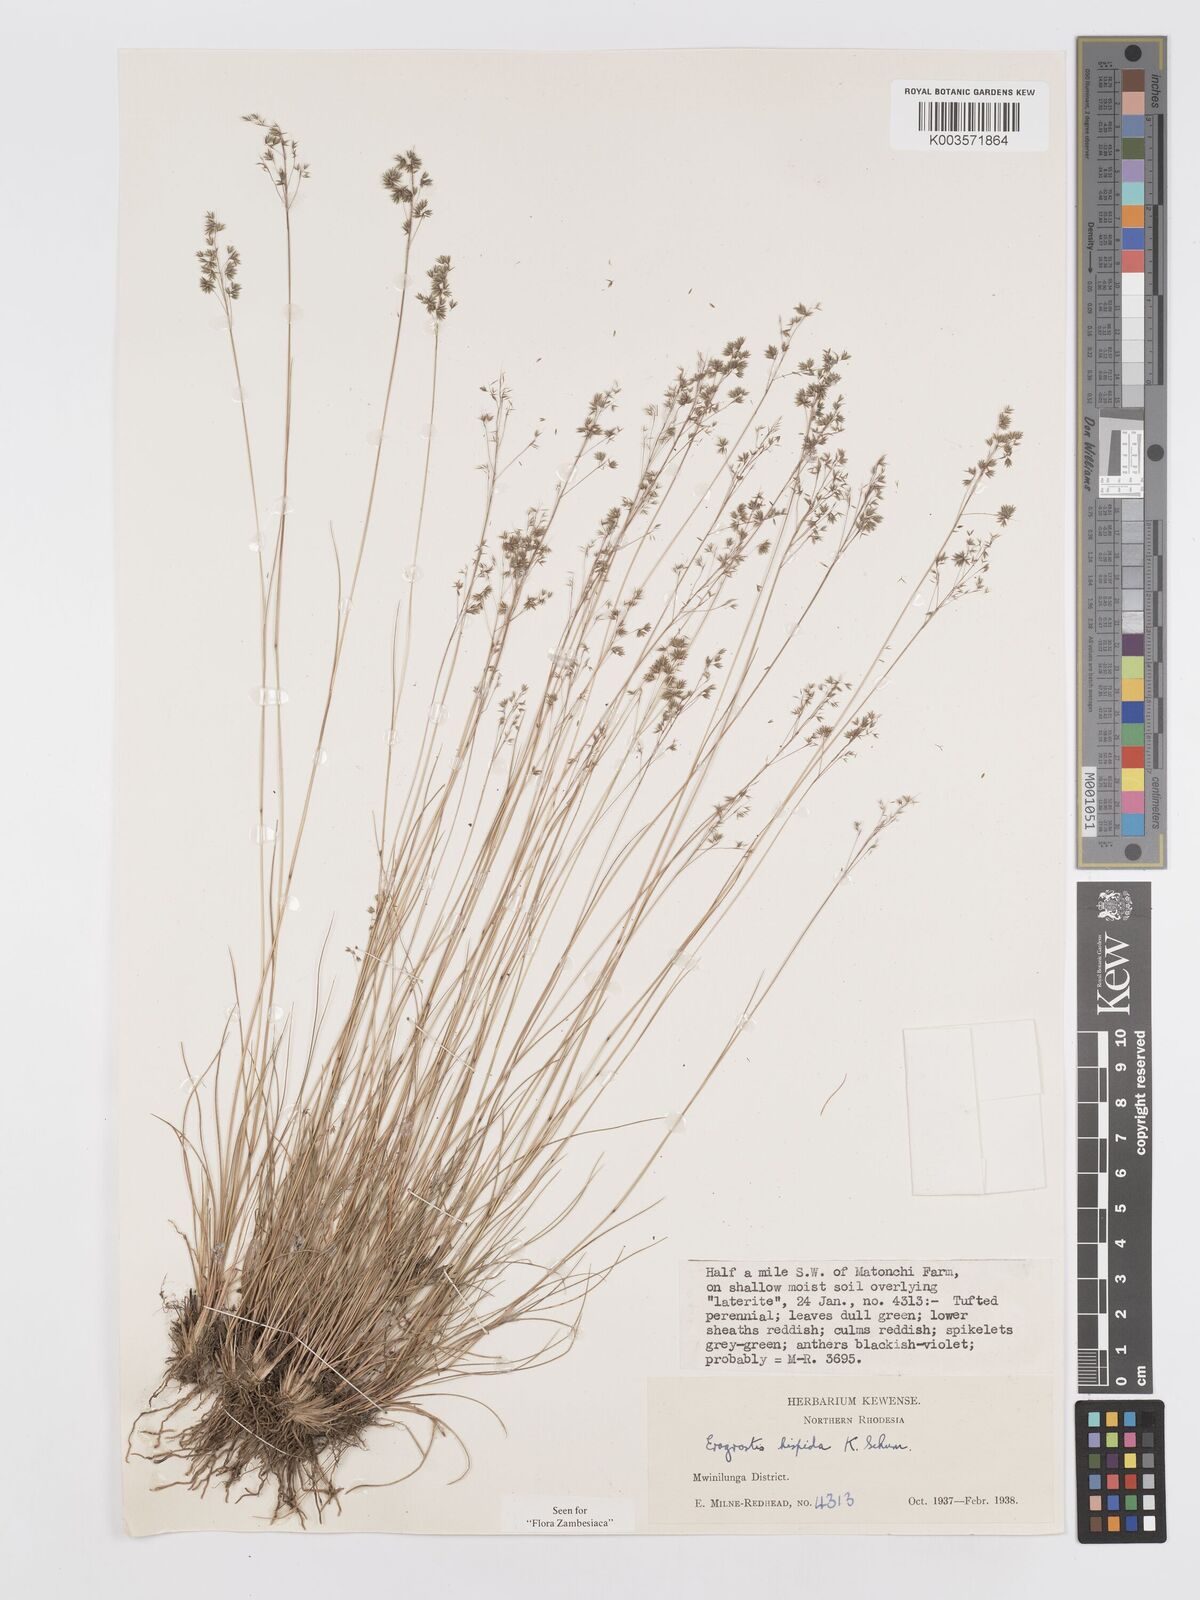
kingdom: Plantae
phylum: Tracheophyta
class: Liliopsida
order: Poales
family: Poaceae
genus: Eragrostis
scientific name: Eragrostis hispida
